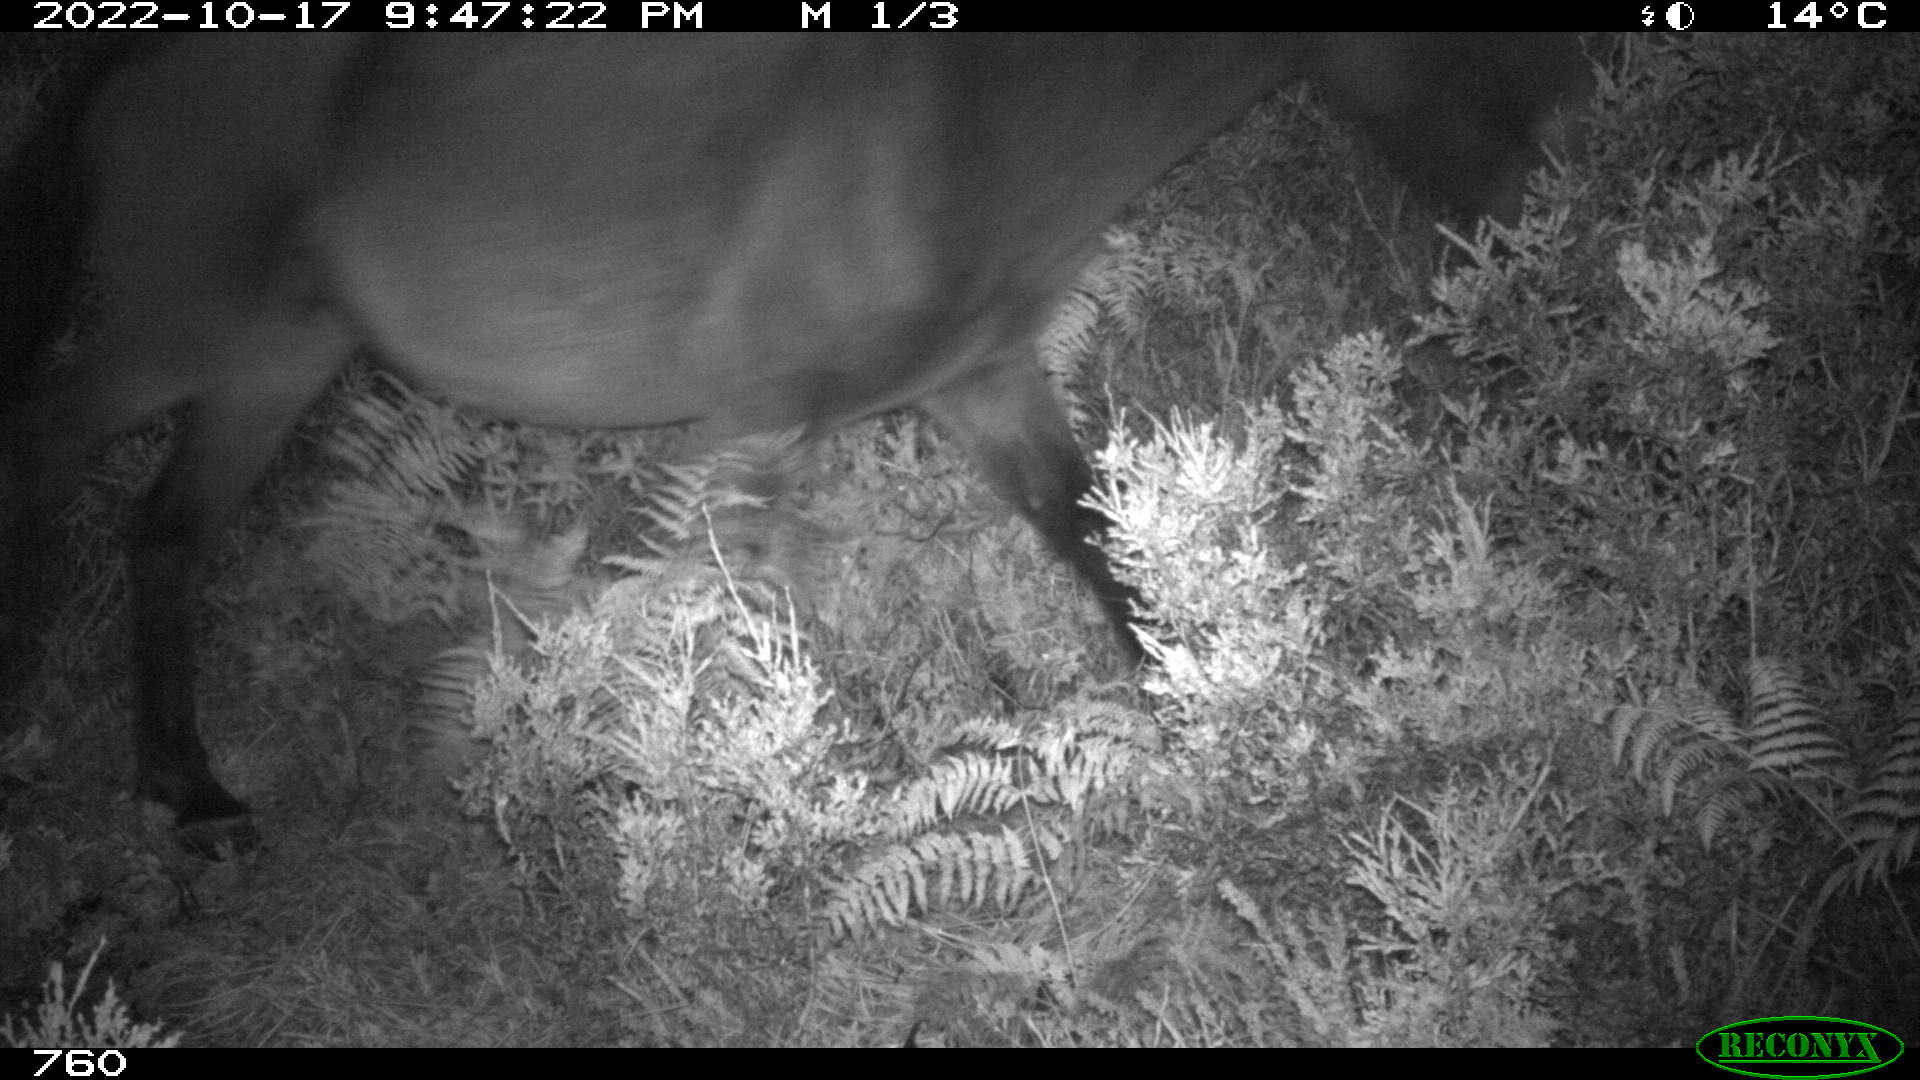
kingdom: Animalia
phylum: Chordata
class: Mammalia
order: Perissodactyla
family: Equidae
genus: Equus
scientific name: Equus caballus
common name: Horse
